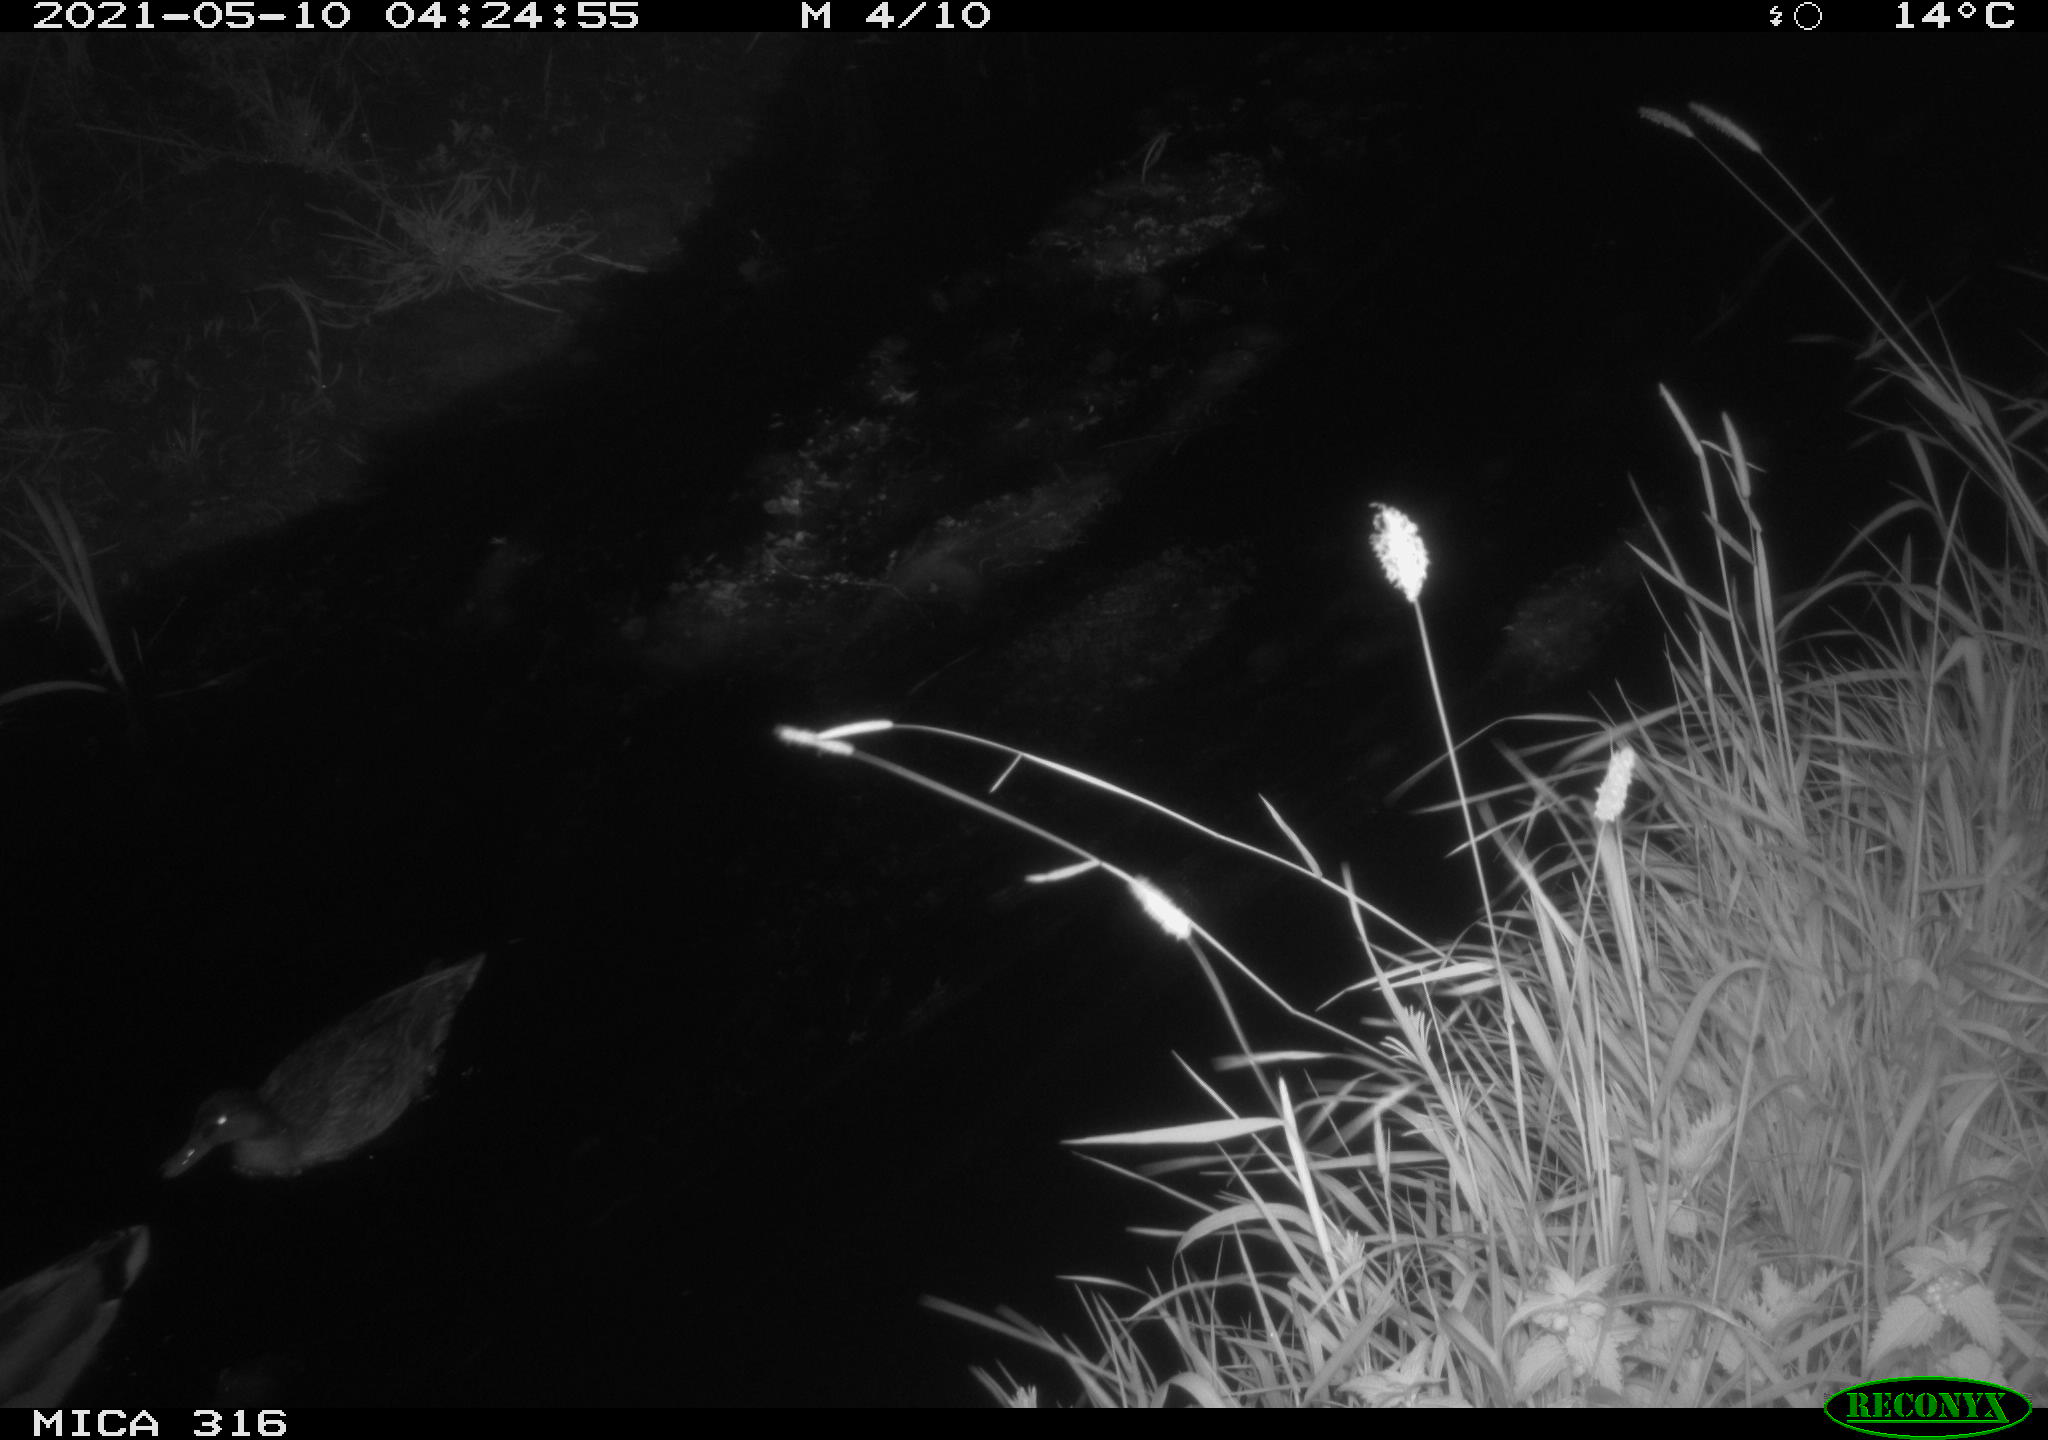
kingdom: Animalia
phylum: Chordata
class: Aves
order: Gruiformes
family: Rallidae
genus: Gallinula
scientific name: Gallinula chloropus
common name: Common moorhen
